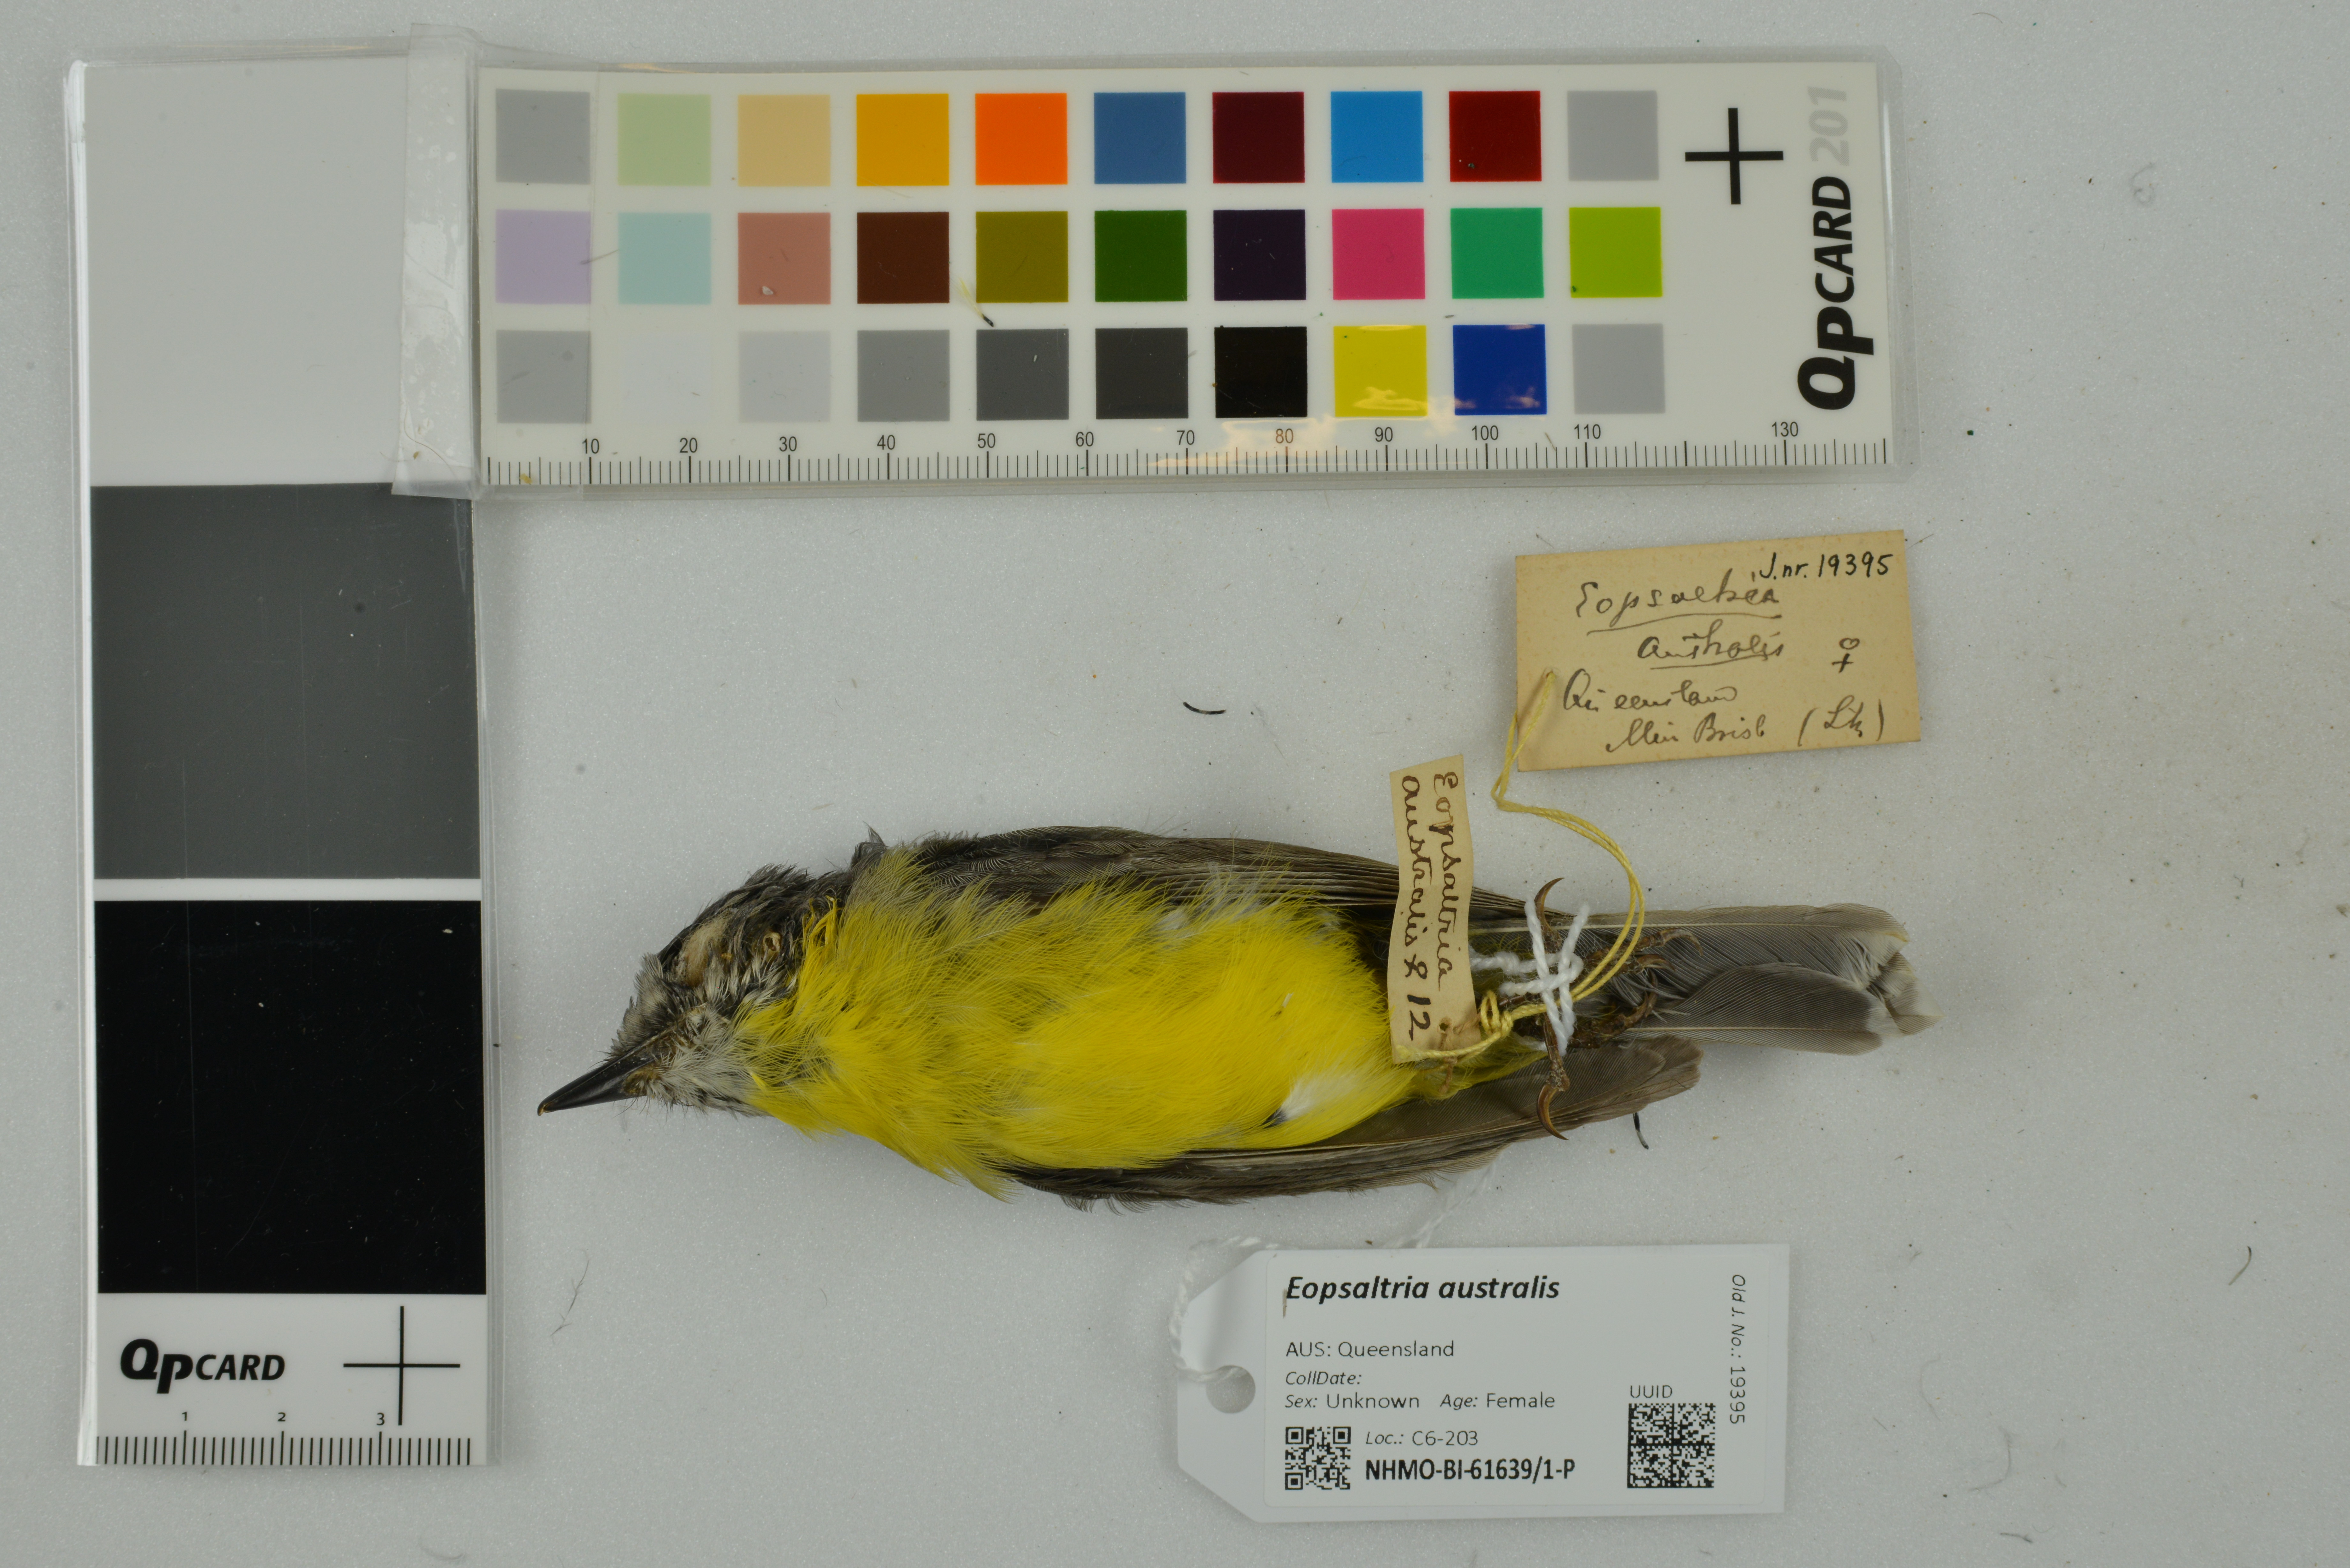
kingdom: Animalia
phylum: Chordata
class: Aves
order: Passeriformes
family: Petroicidae
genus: Eopsaltria
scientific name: Eopsaltria australis
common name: Eastern yellow robin
